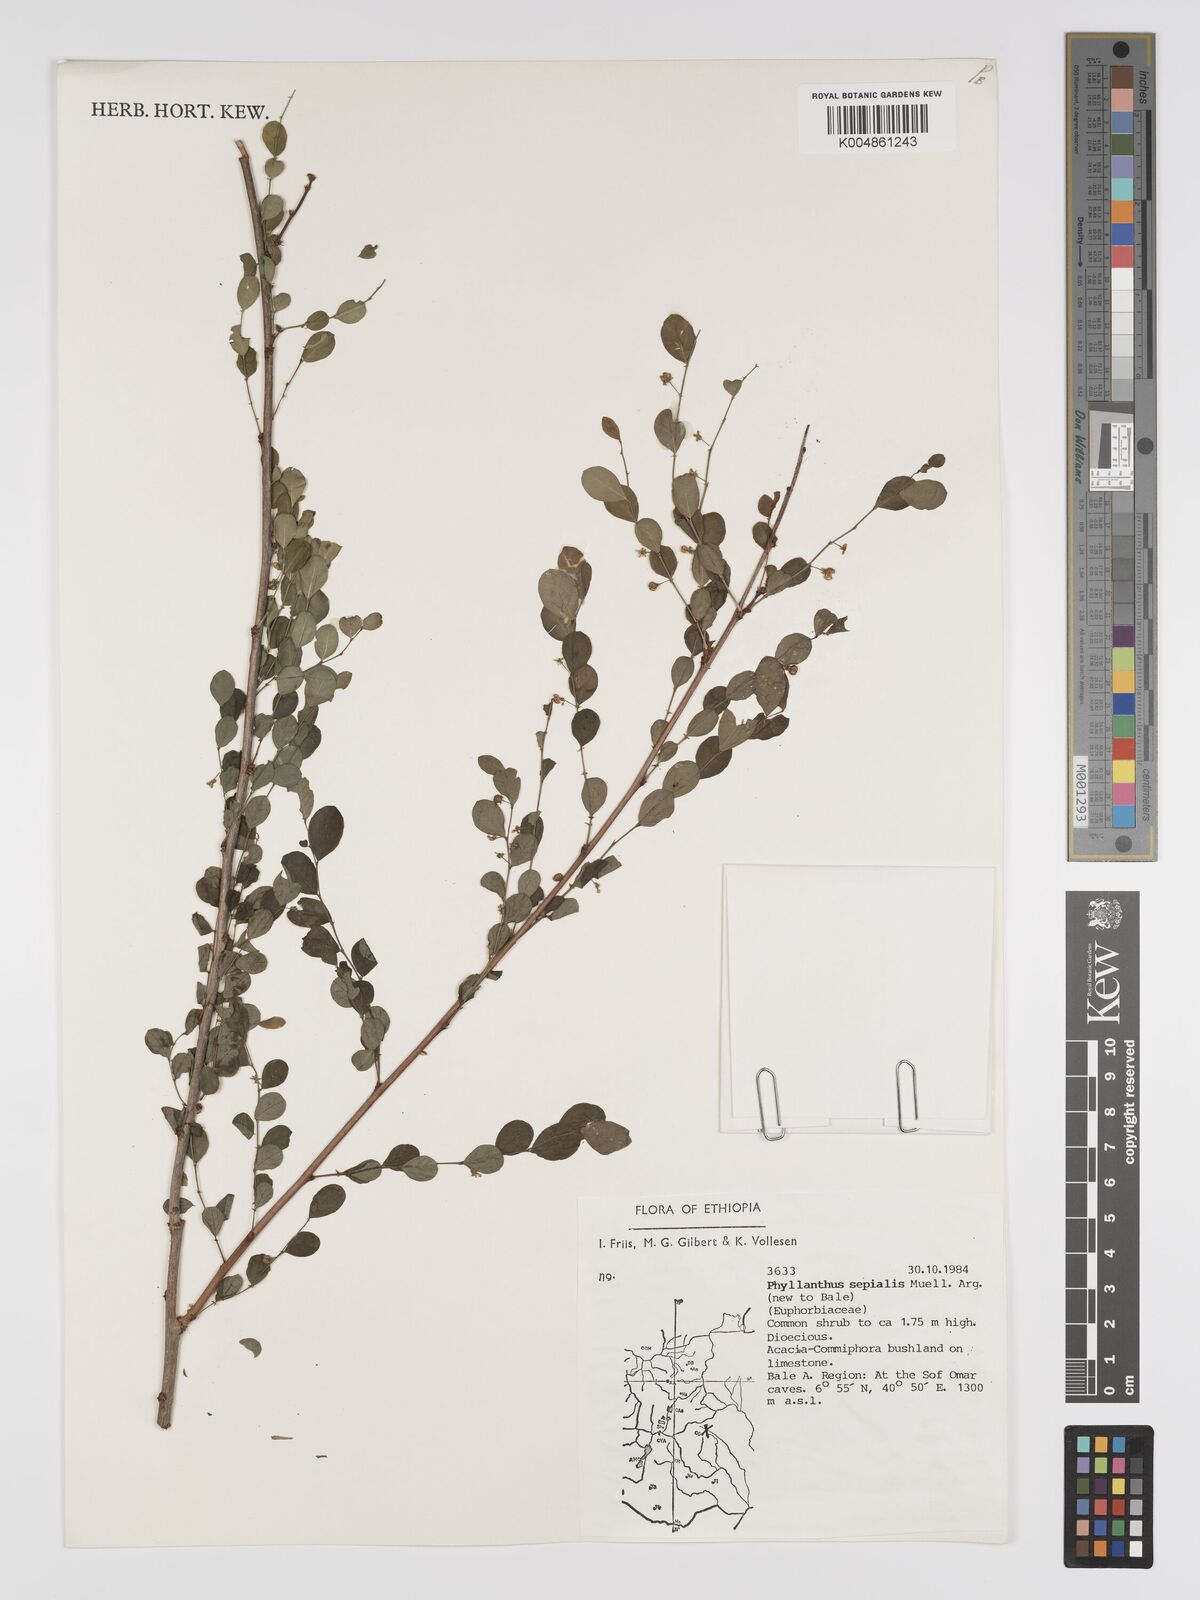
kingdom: Plantae
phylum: Tracheophyta
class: Magnoliopsida
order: Malpighiales
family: Phyllanthaceae
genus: Phyllanthus
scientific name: Phyllanthus sepialis
